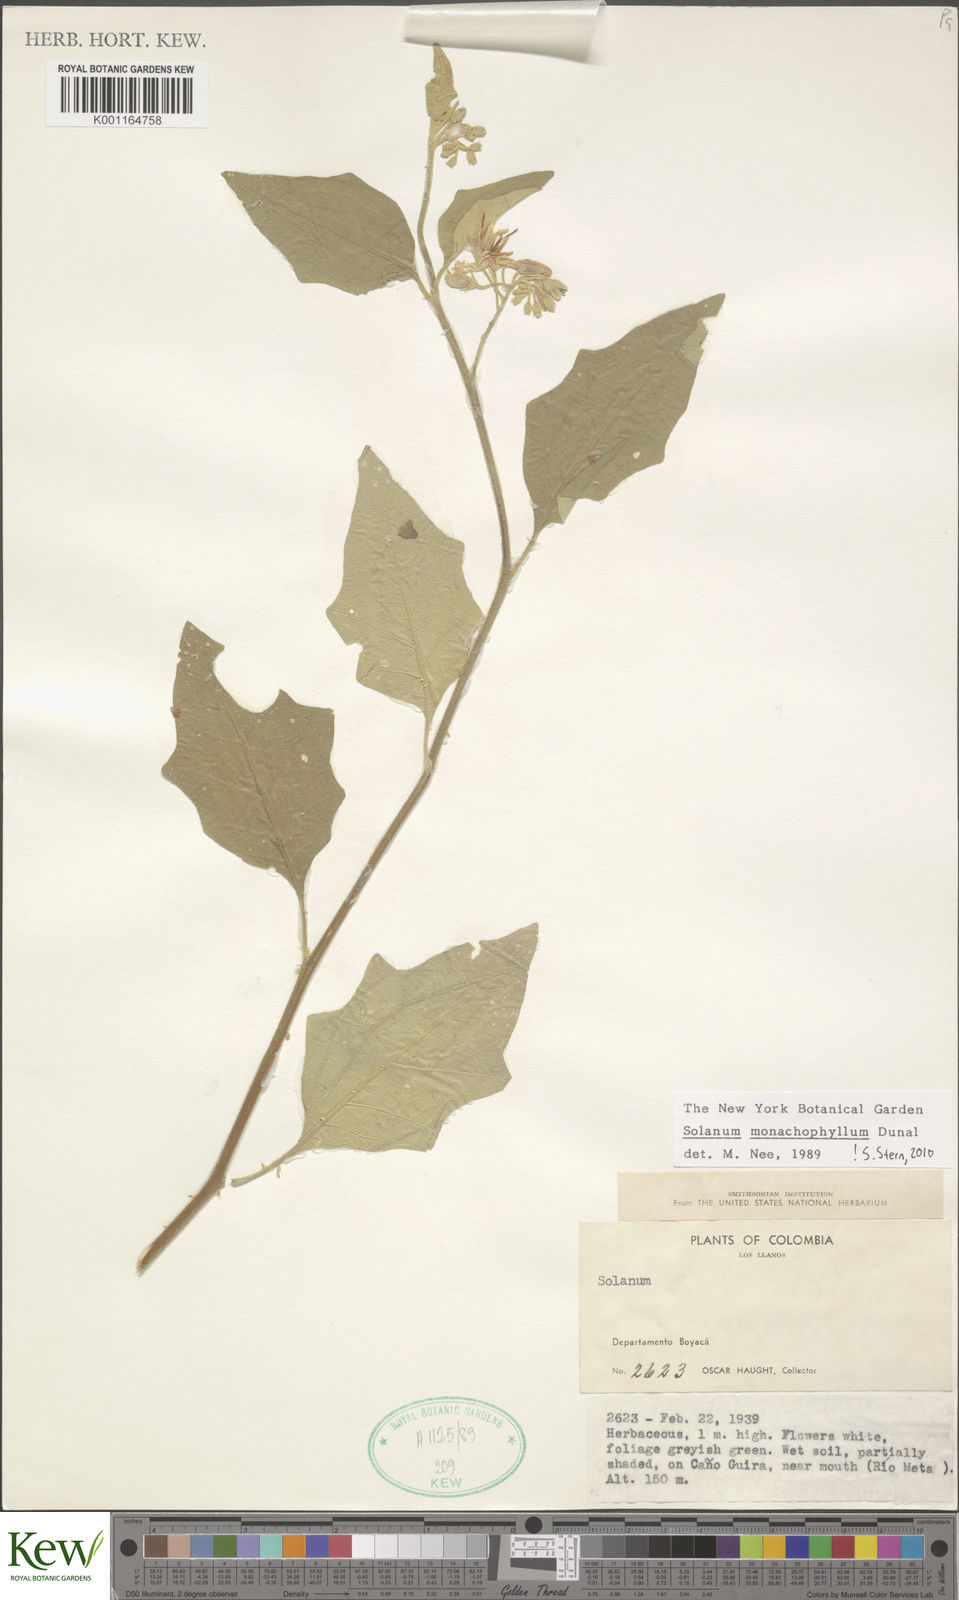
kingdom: Plantae
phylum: Tracheophyta
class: Magnoliopsida
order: Solanales
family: Solanaceae
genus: Solanum
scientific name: Solanum monachophyllum
